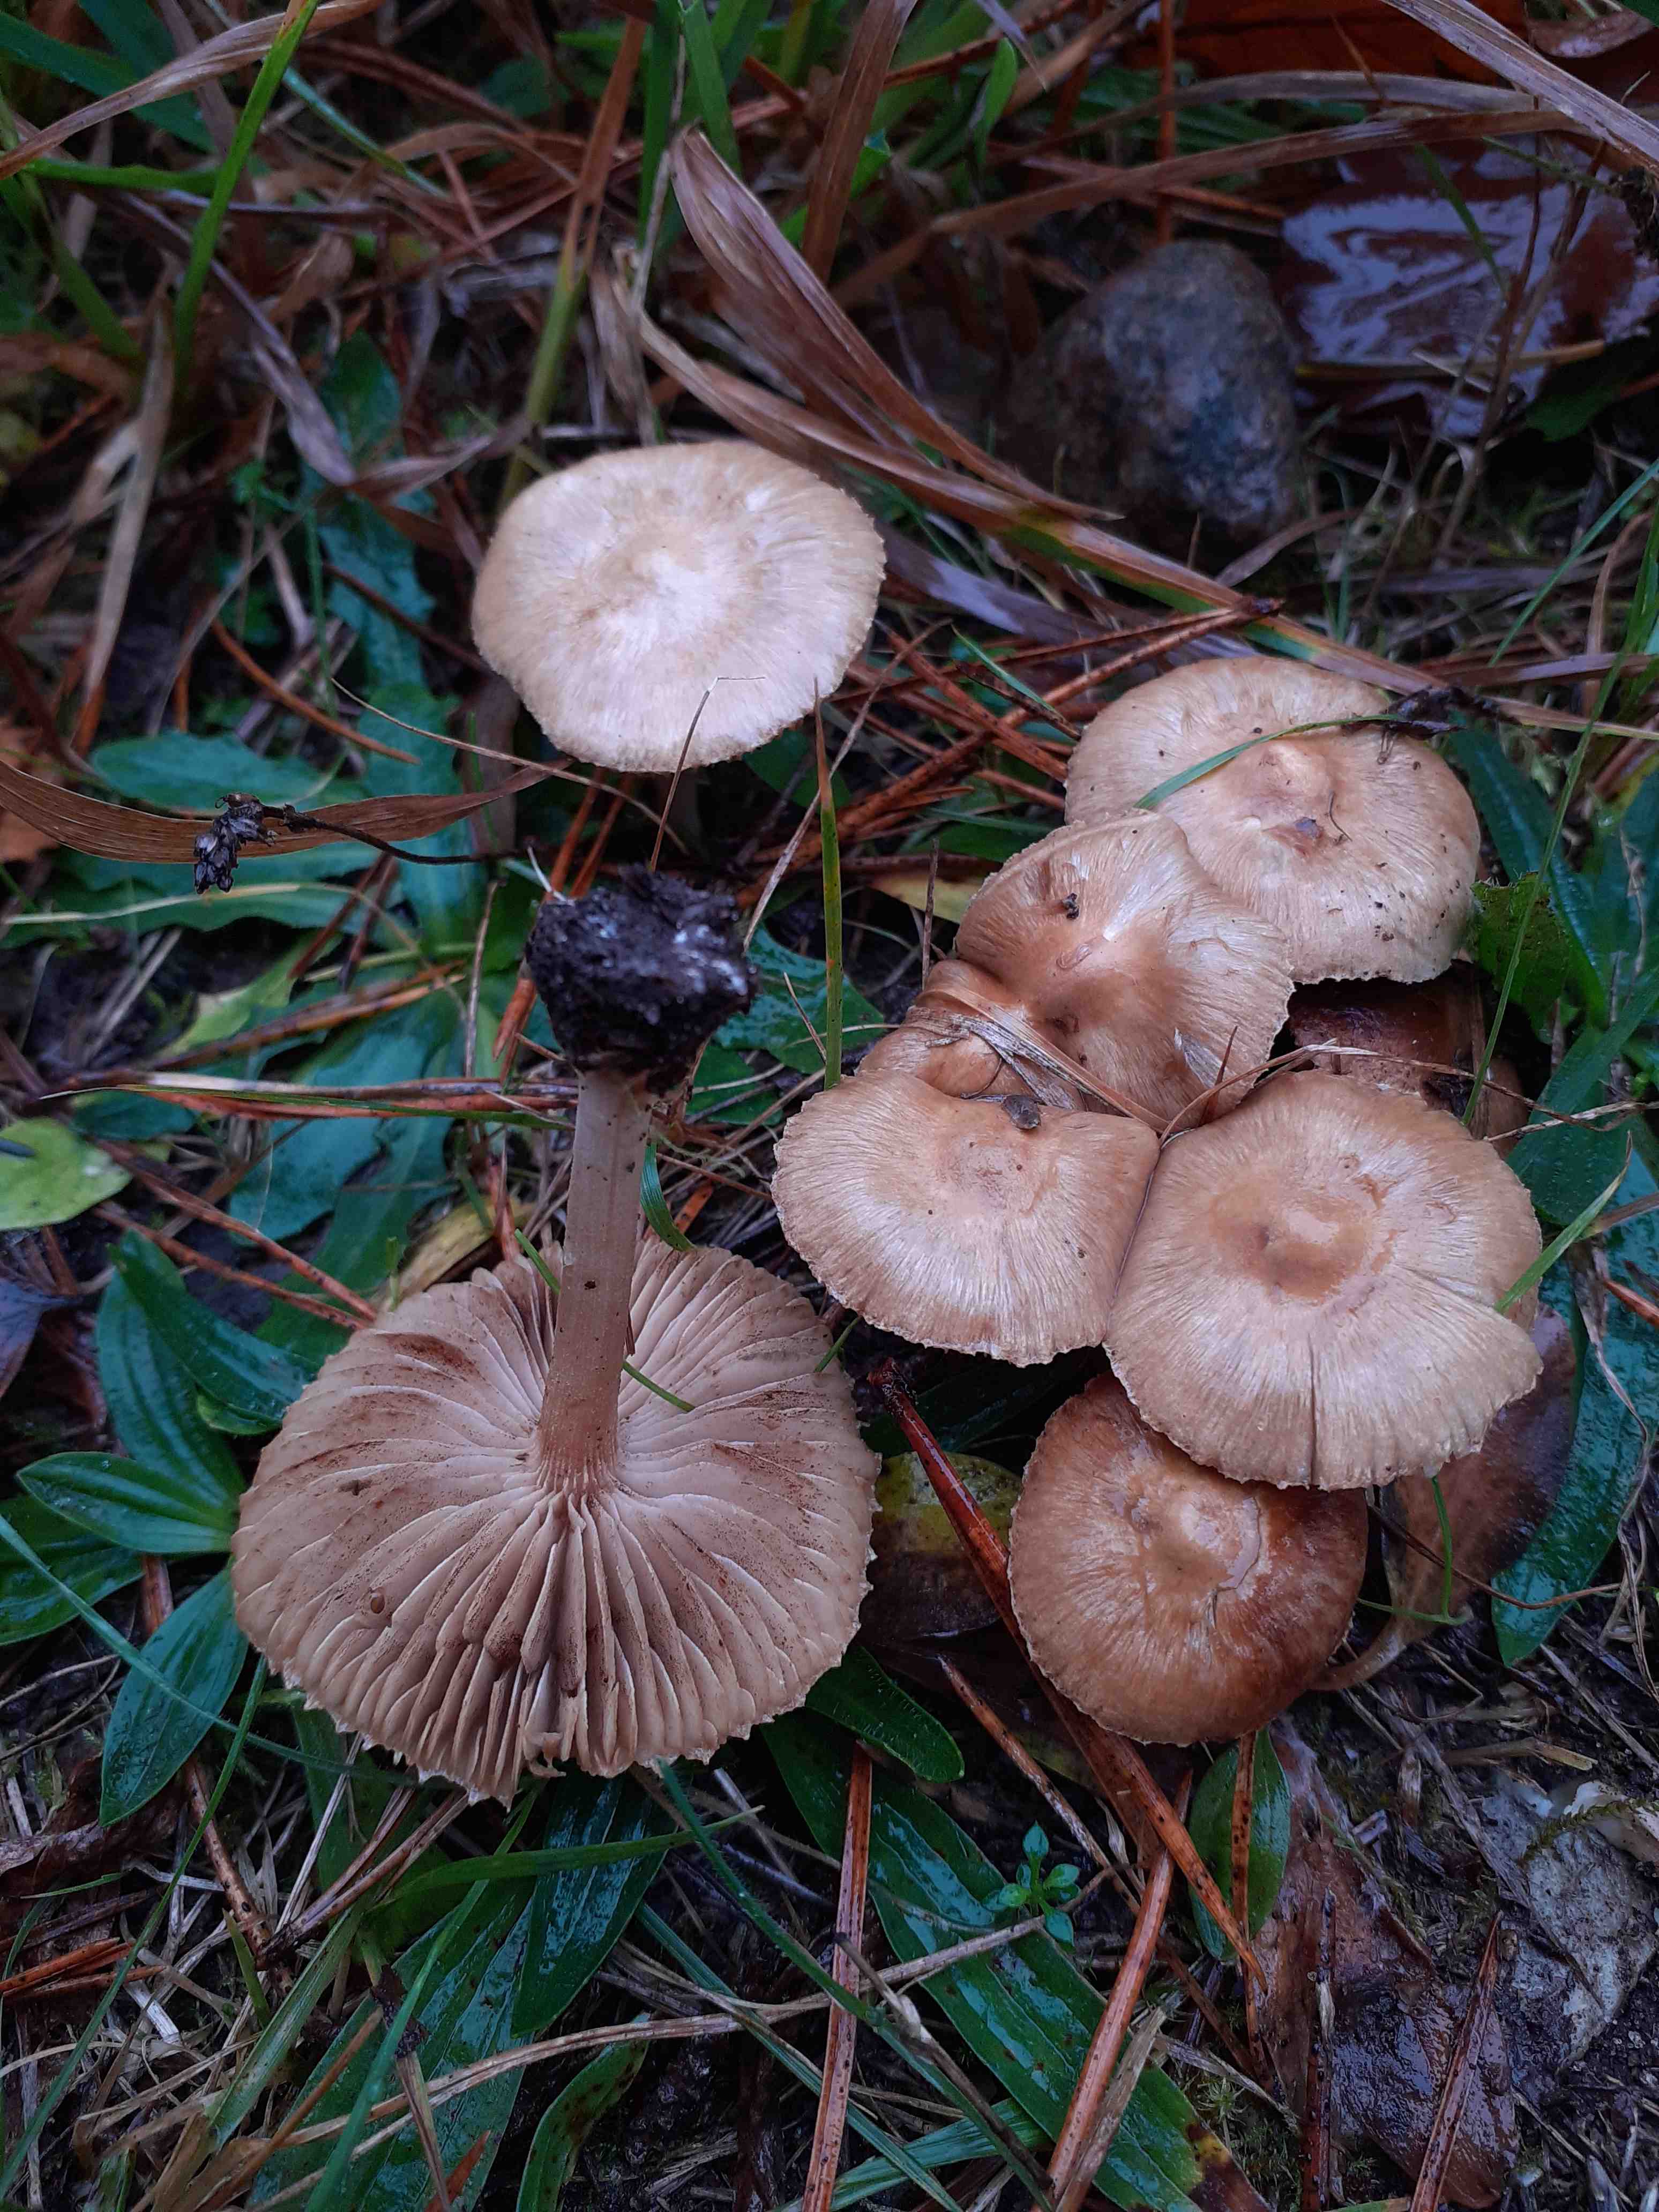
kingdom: Fungi
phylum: Basidiomycota
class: Agaricomycetes
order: Agaricales
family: Inocybaceae
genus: Inocybe
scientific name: Inocybe sindonia
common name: bleg trævlhat
